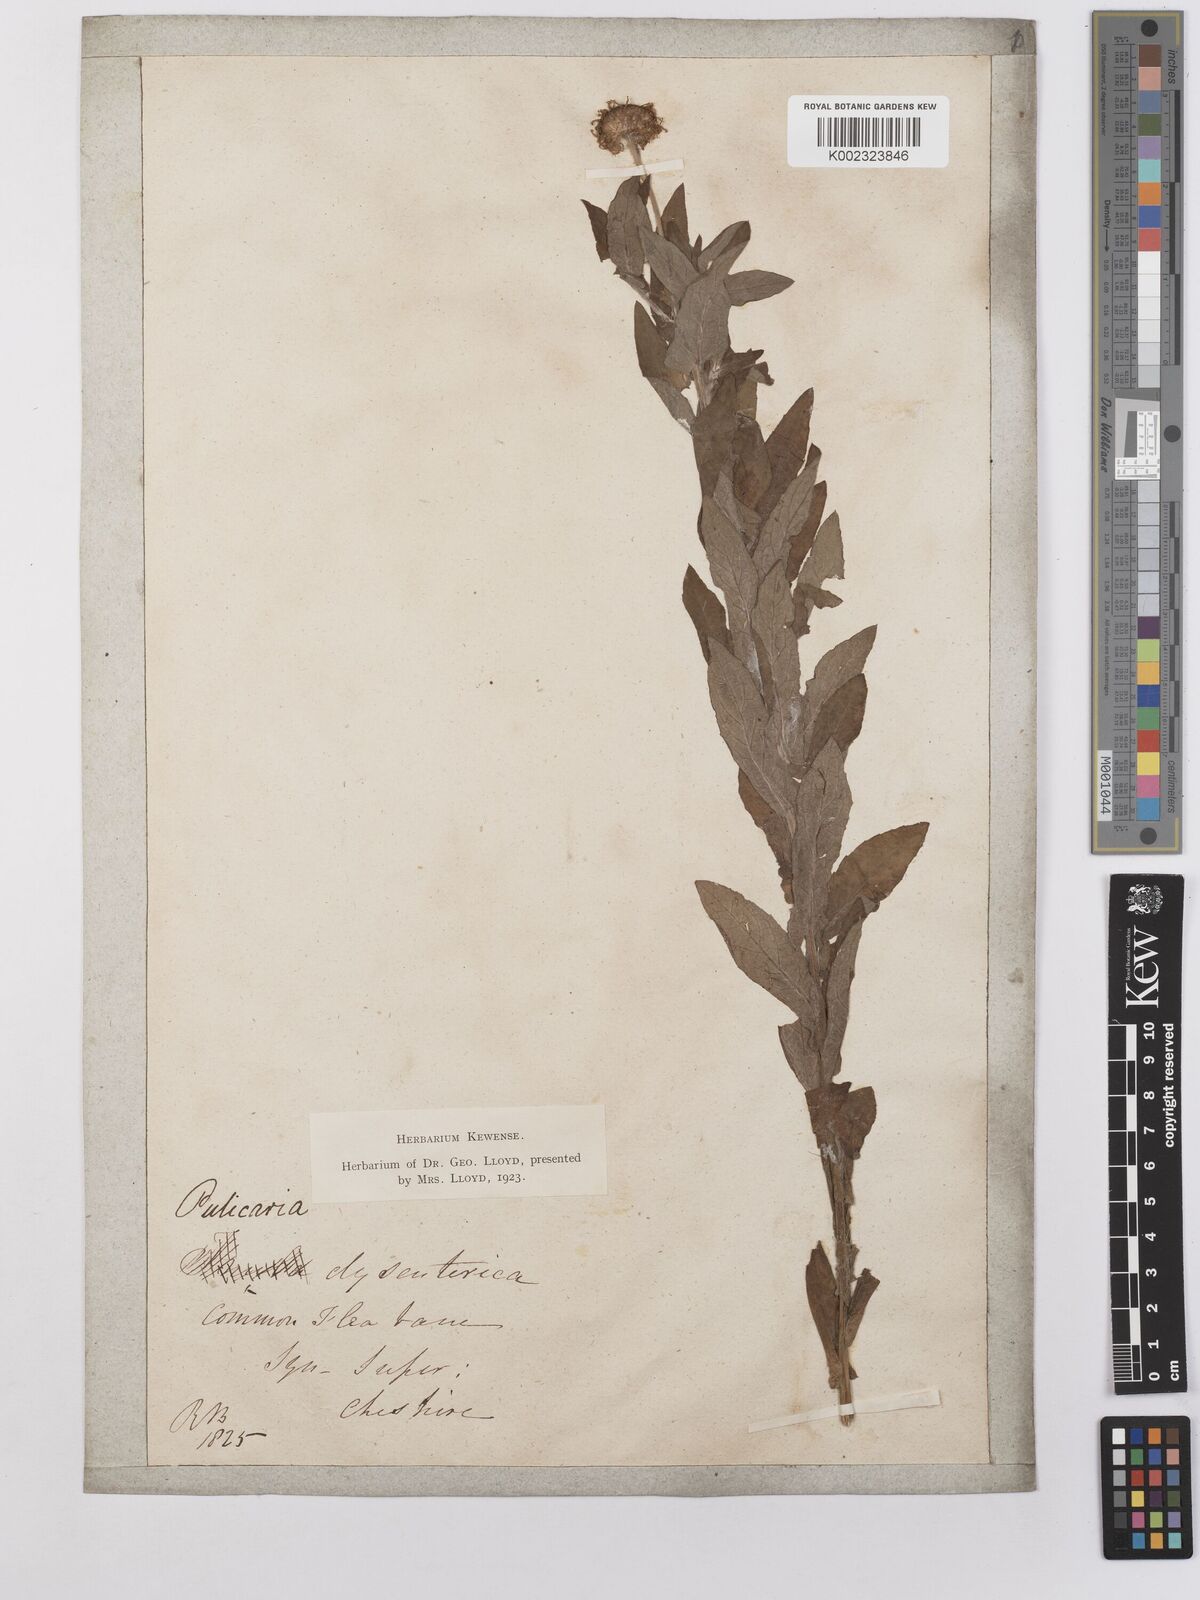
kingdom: Plantae
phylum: Tracheophyta
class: Magnoliopsida
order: Asterales
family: Asteraceae
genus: Pulicaria
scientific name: Pulicaria dysenterica
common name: Common fleabane
